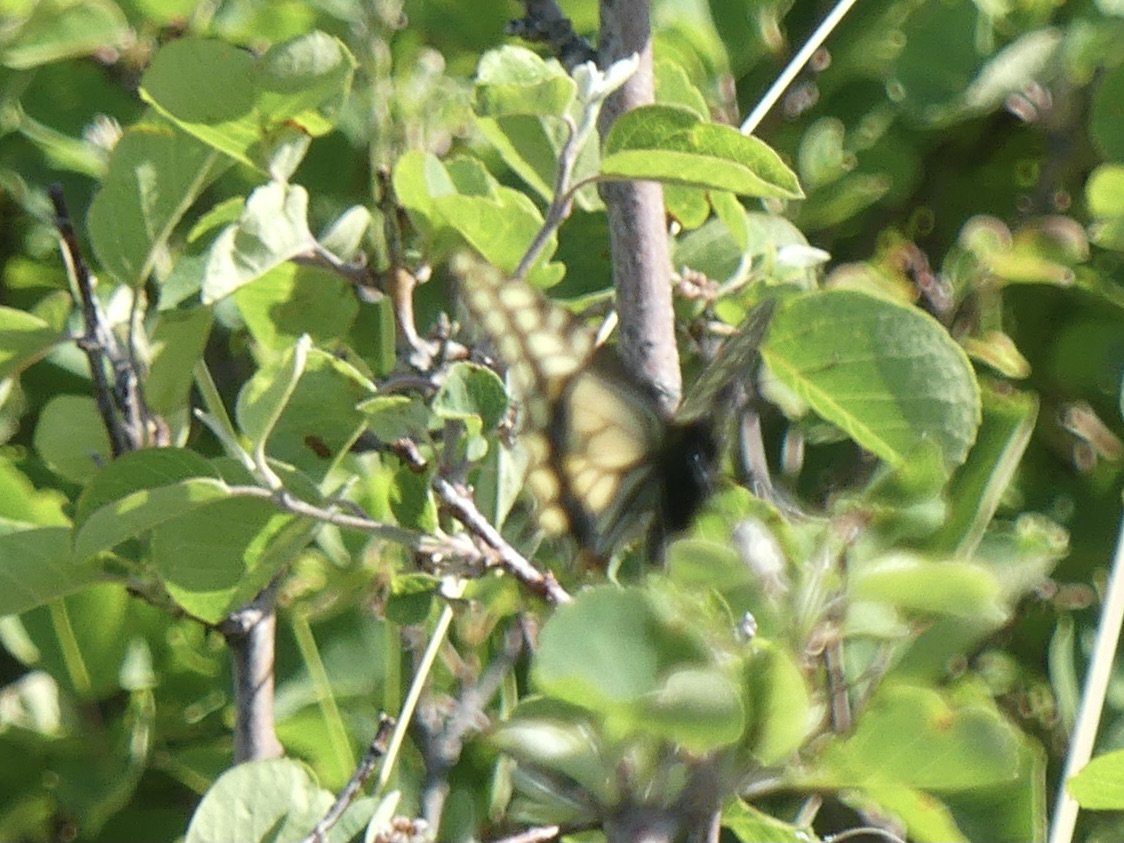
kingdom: Animalia
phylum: Arthropoda
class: Insecta
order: Lepidoptera
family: Papilionidae
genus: Papilio
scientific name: Papilio
